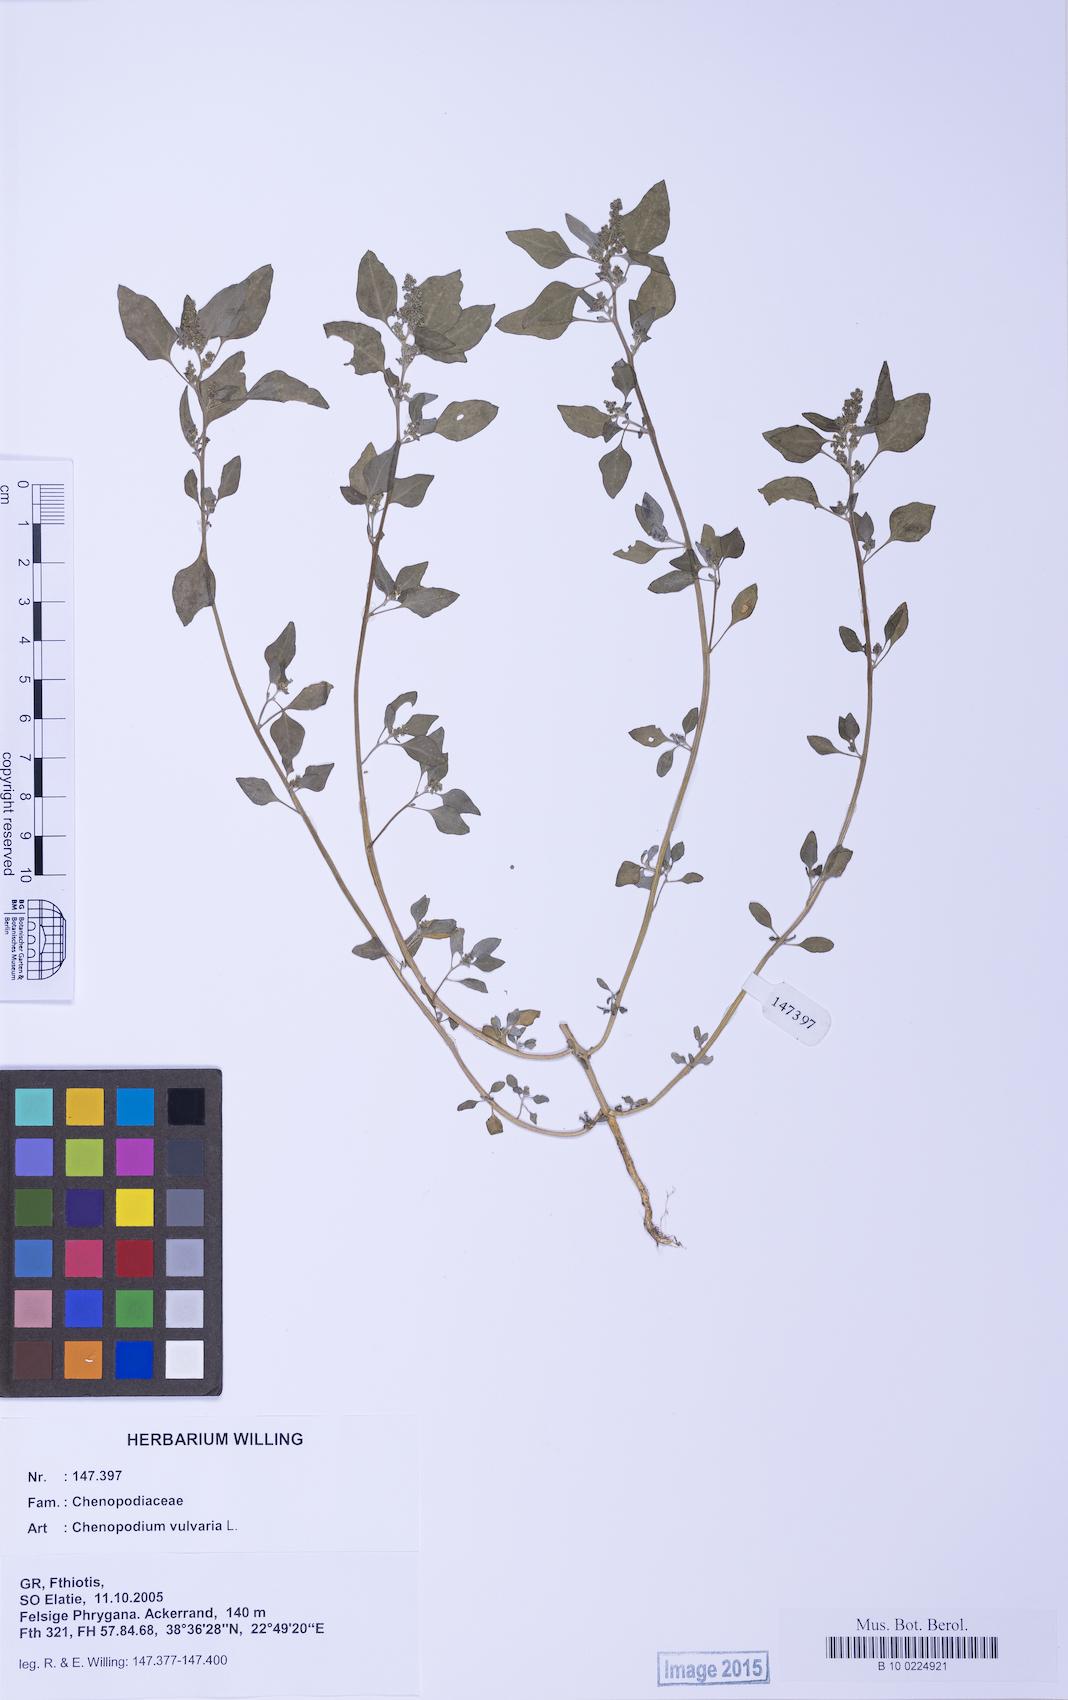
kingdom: Plantae
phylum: Tracheophyta
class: Magnoliopsida
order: Caryophyllales
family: Amaranthaceae
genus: Chenopodium
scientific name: Chenopodium vulvaria
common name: Stinking goosefoot
